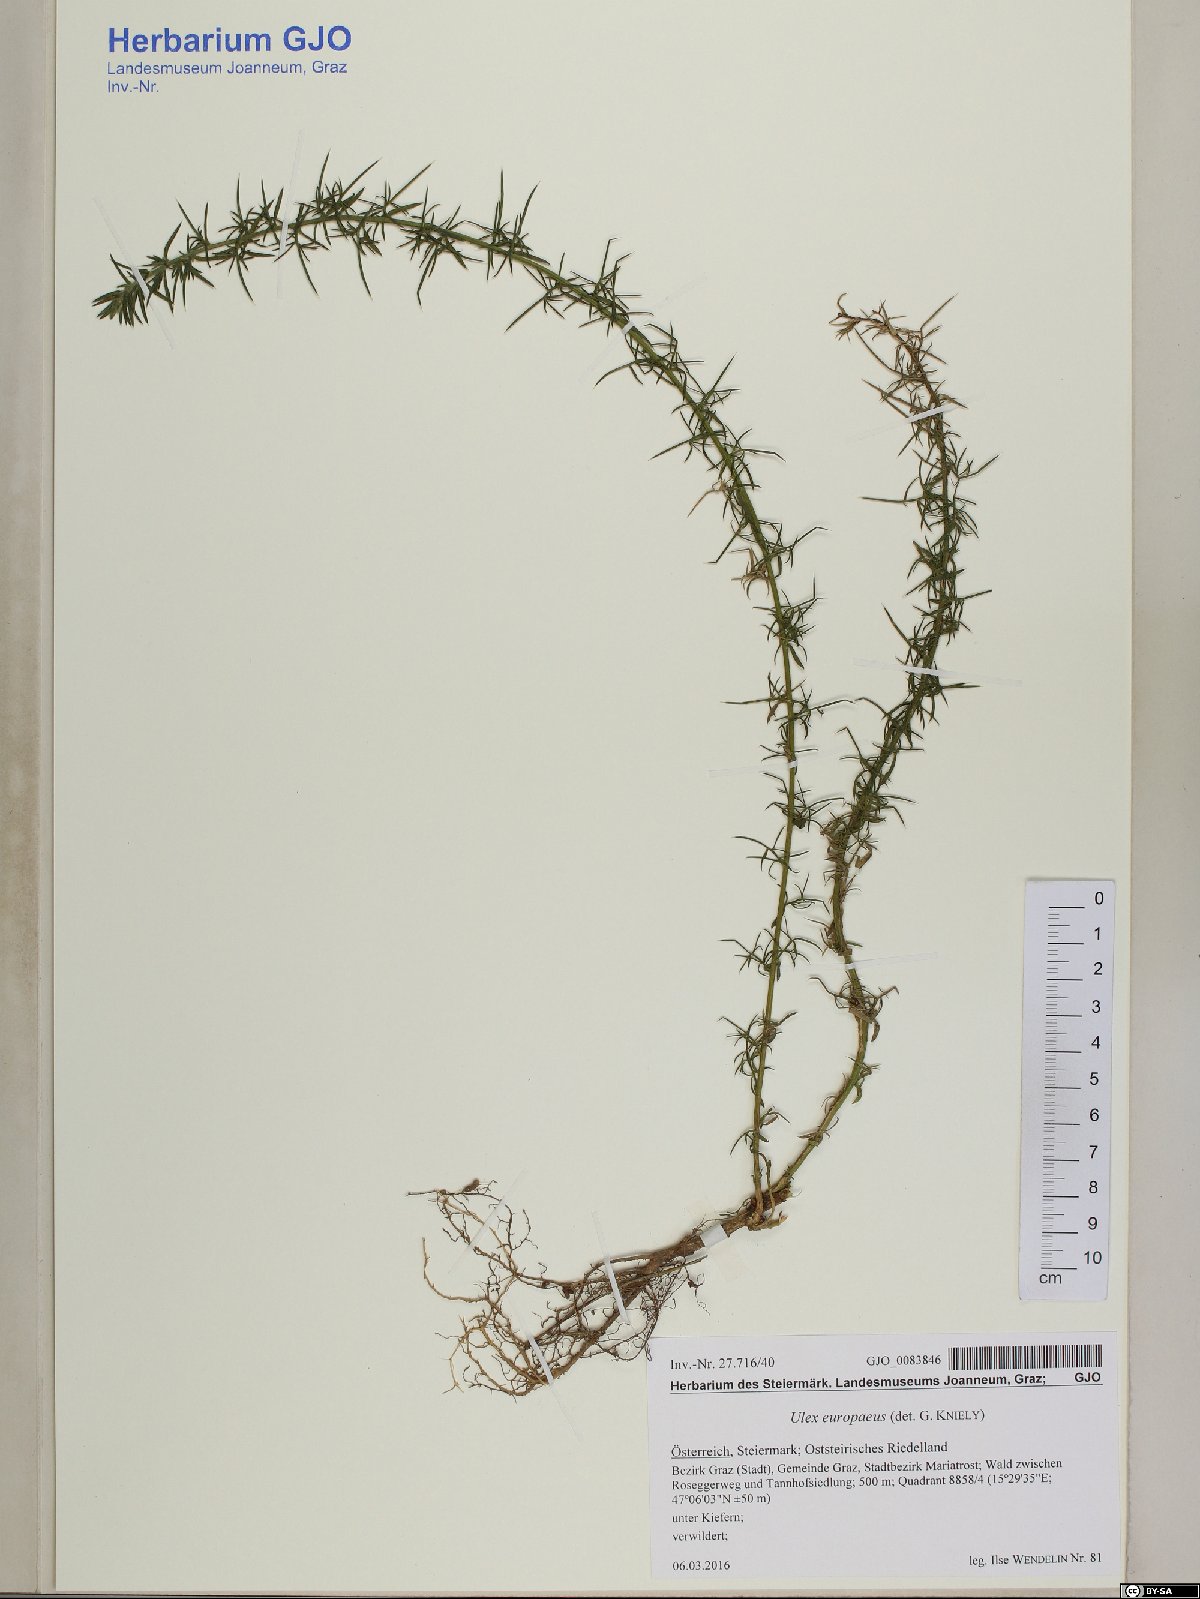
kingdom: Plantae
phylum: Tracheophyta
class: Magnoliopsida
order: Fabales
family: Fabaceae
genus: Ulex
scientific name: Ulex europaeus
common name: Common gorse
